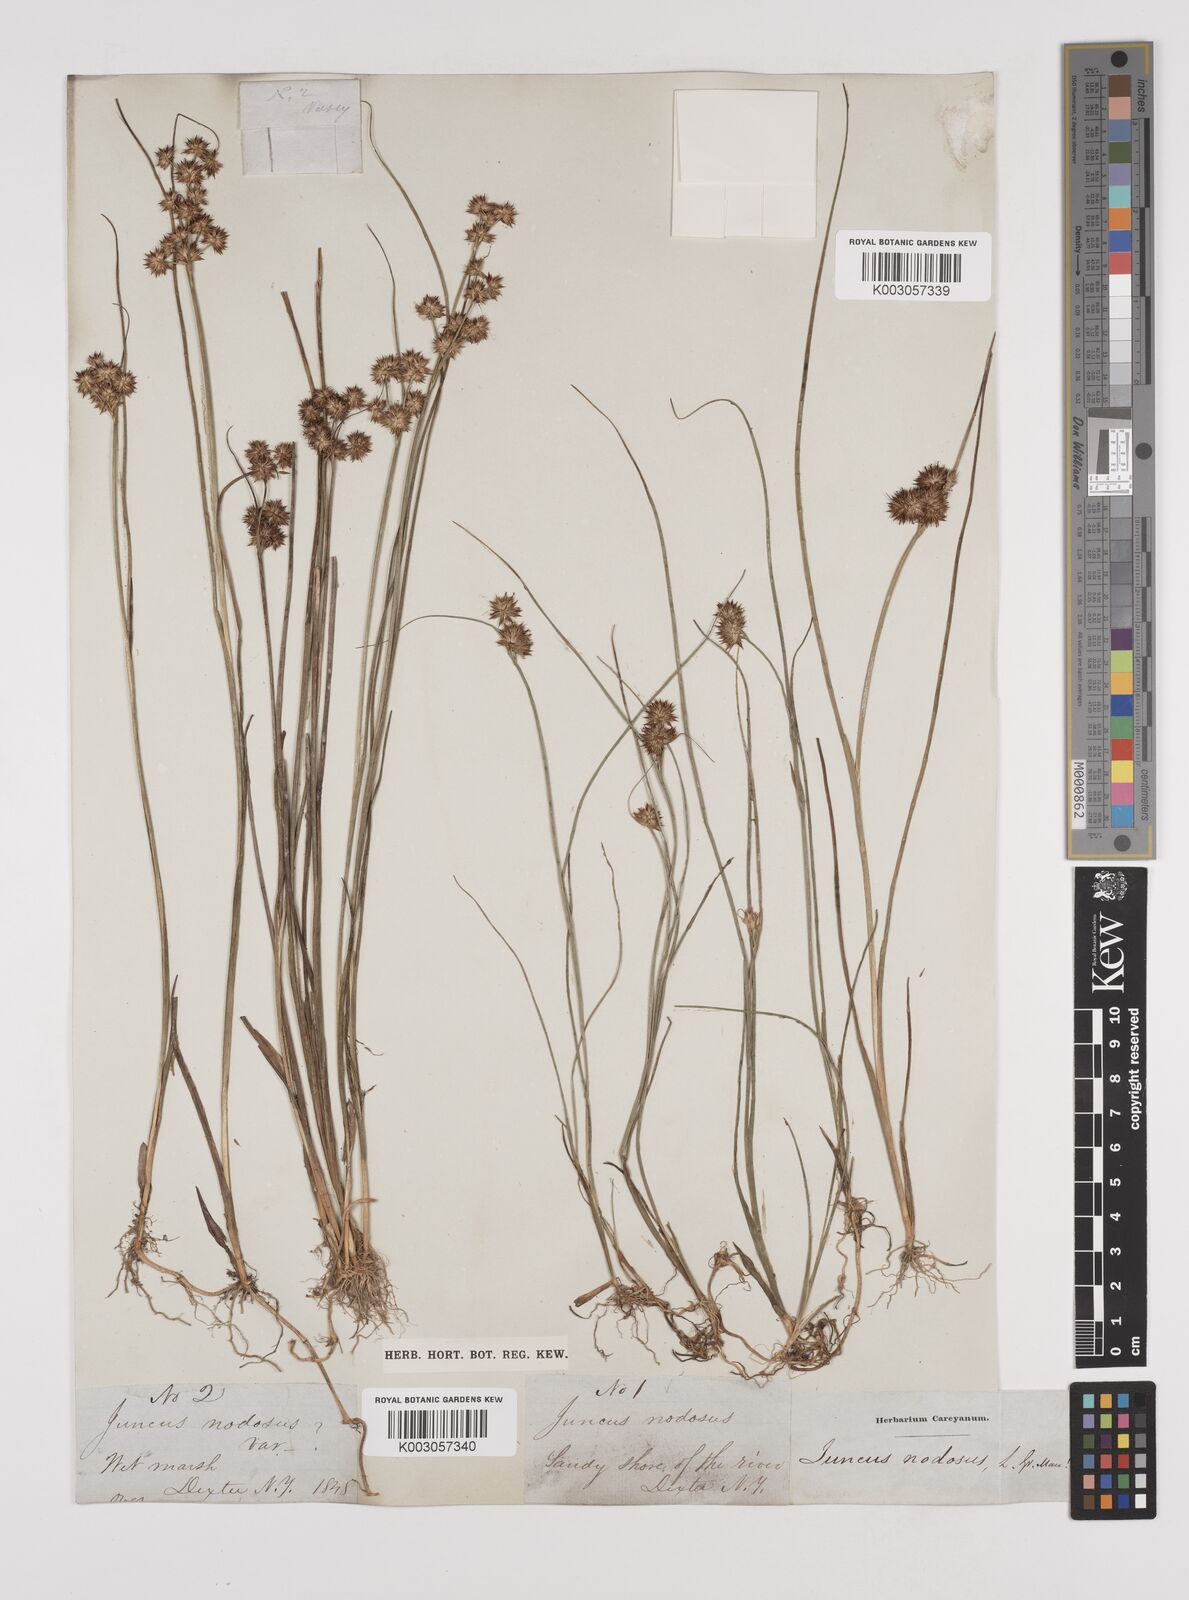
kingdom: Plantae
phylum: Tracheophyta
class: Liliopsida
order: Poales
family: Juncaceae
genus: Juncus
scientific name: Juncus nodosus
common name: Knotted rush
